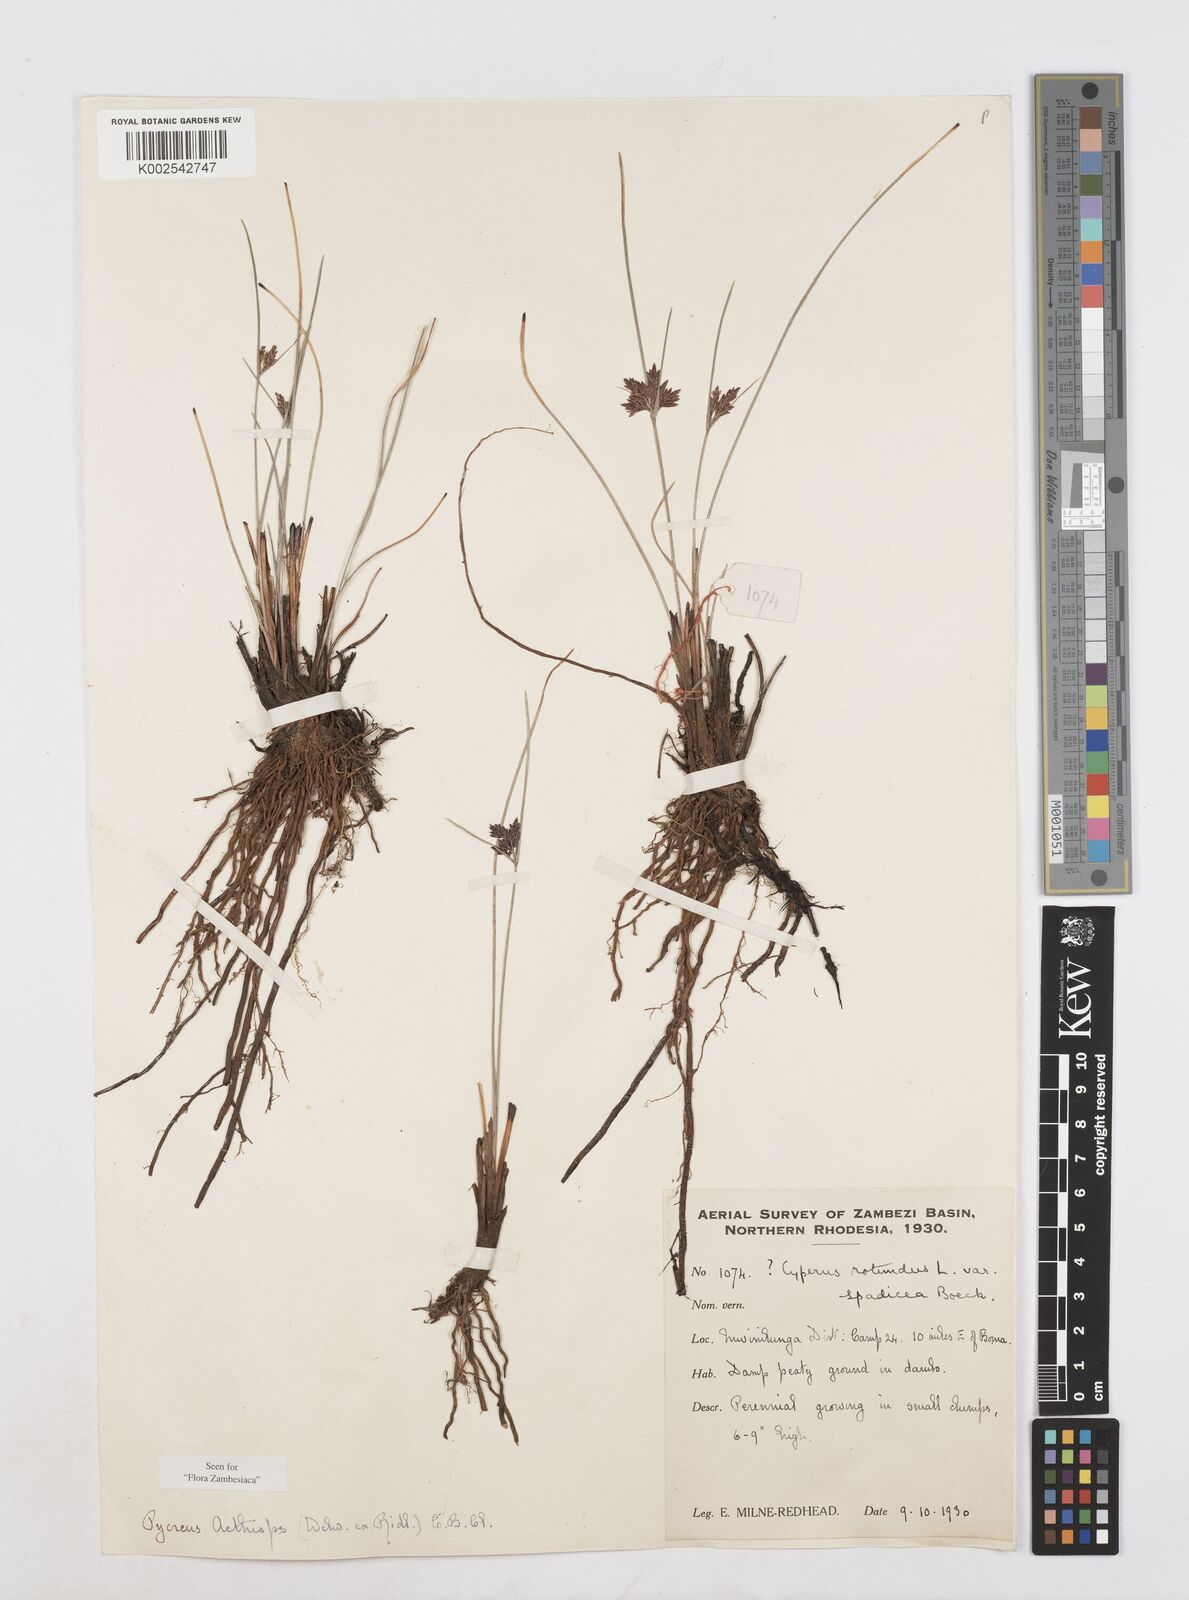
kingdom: Plantae
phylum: Tracheophyta
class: Liliopsida
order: Poales
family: Cyperaceae
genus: Cyperus
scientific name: Cyperus aethiops
